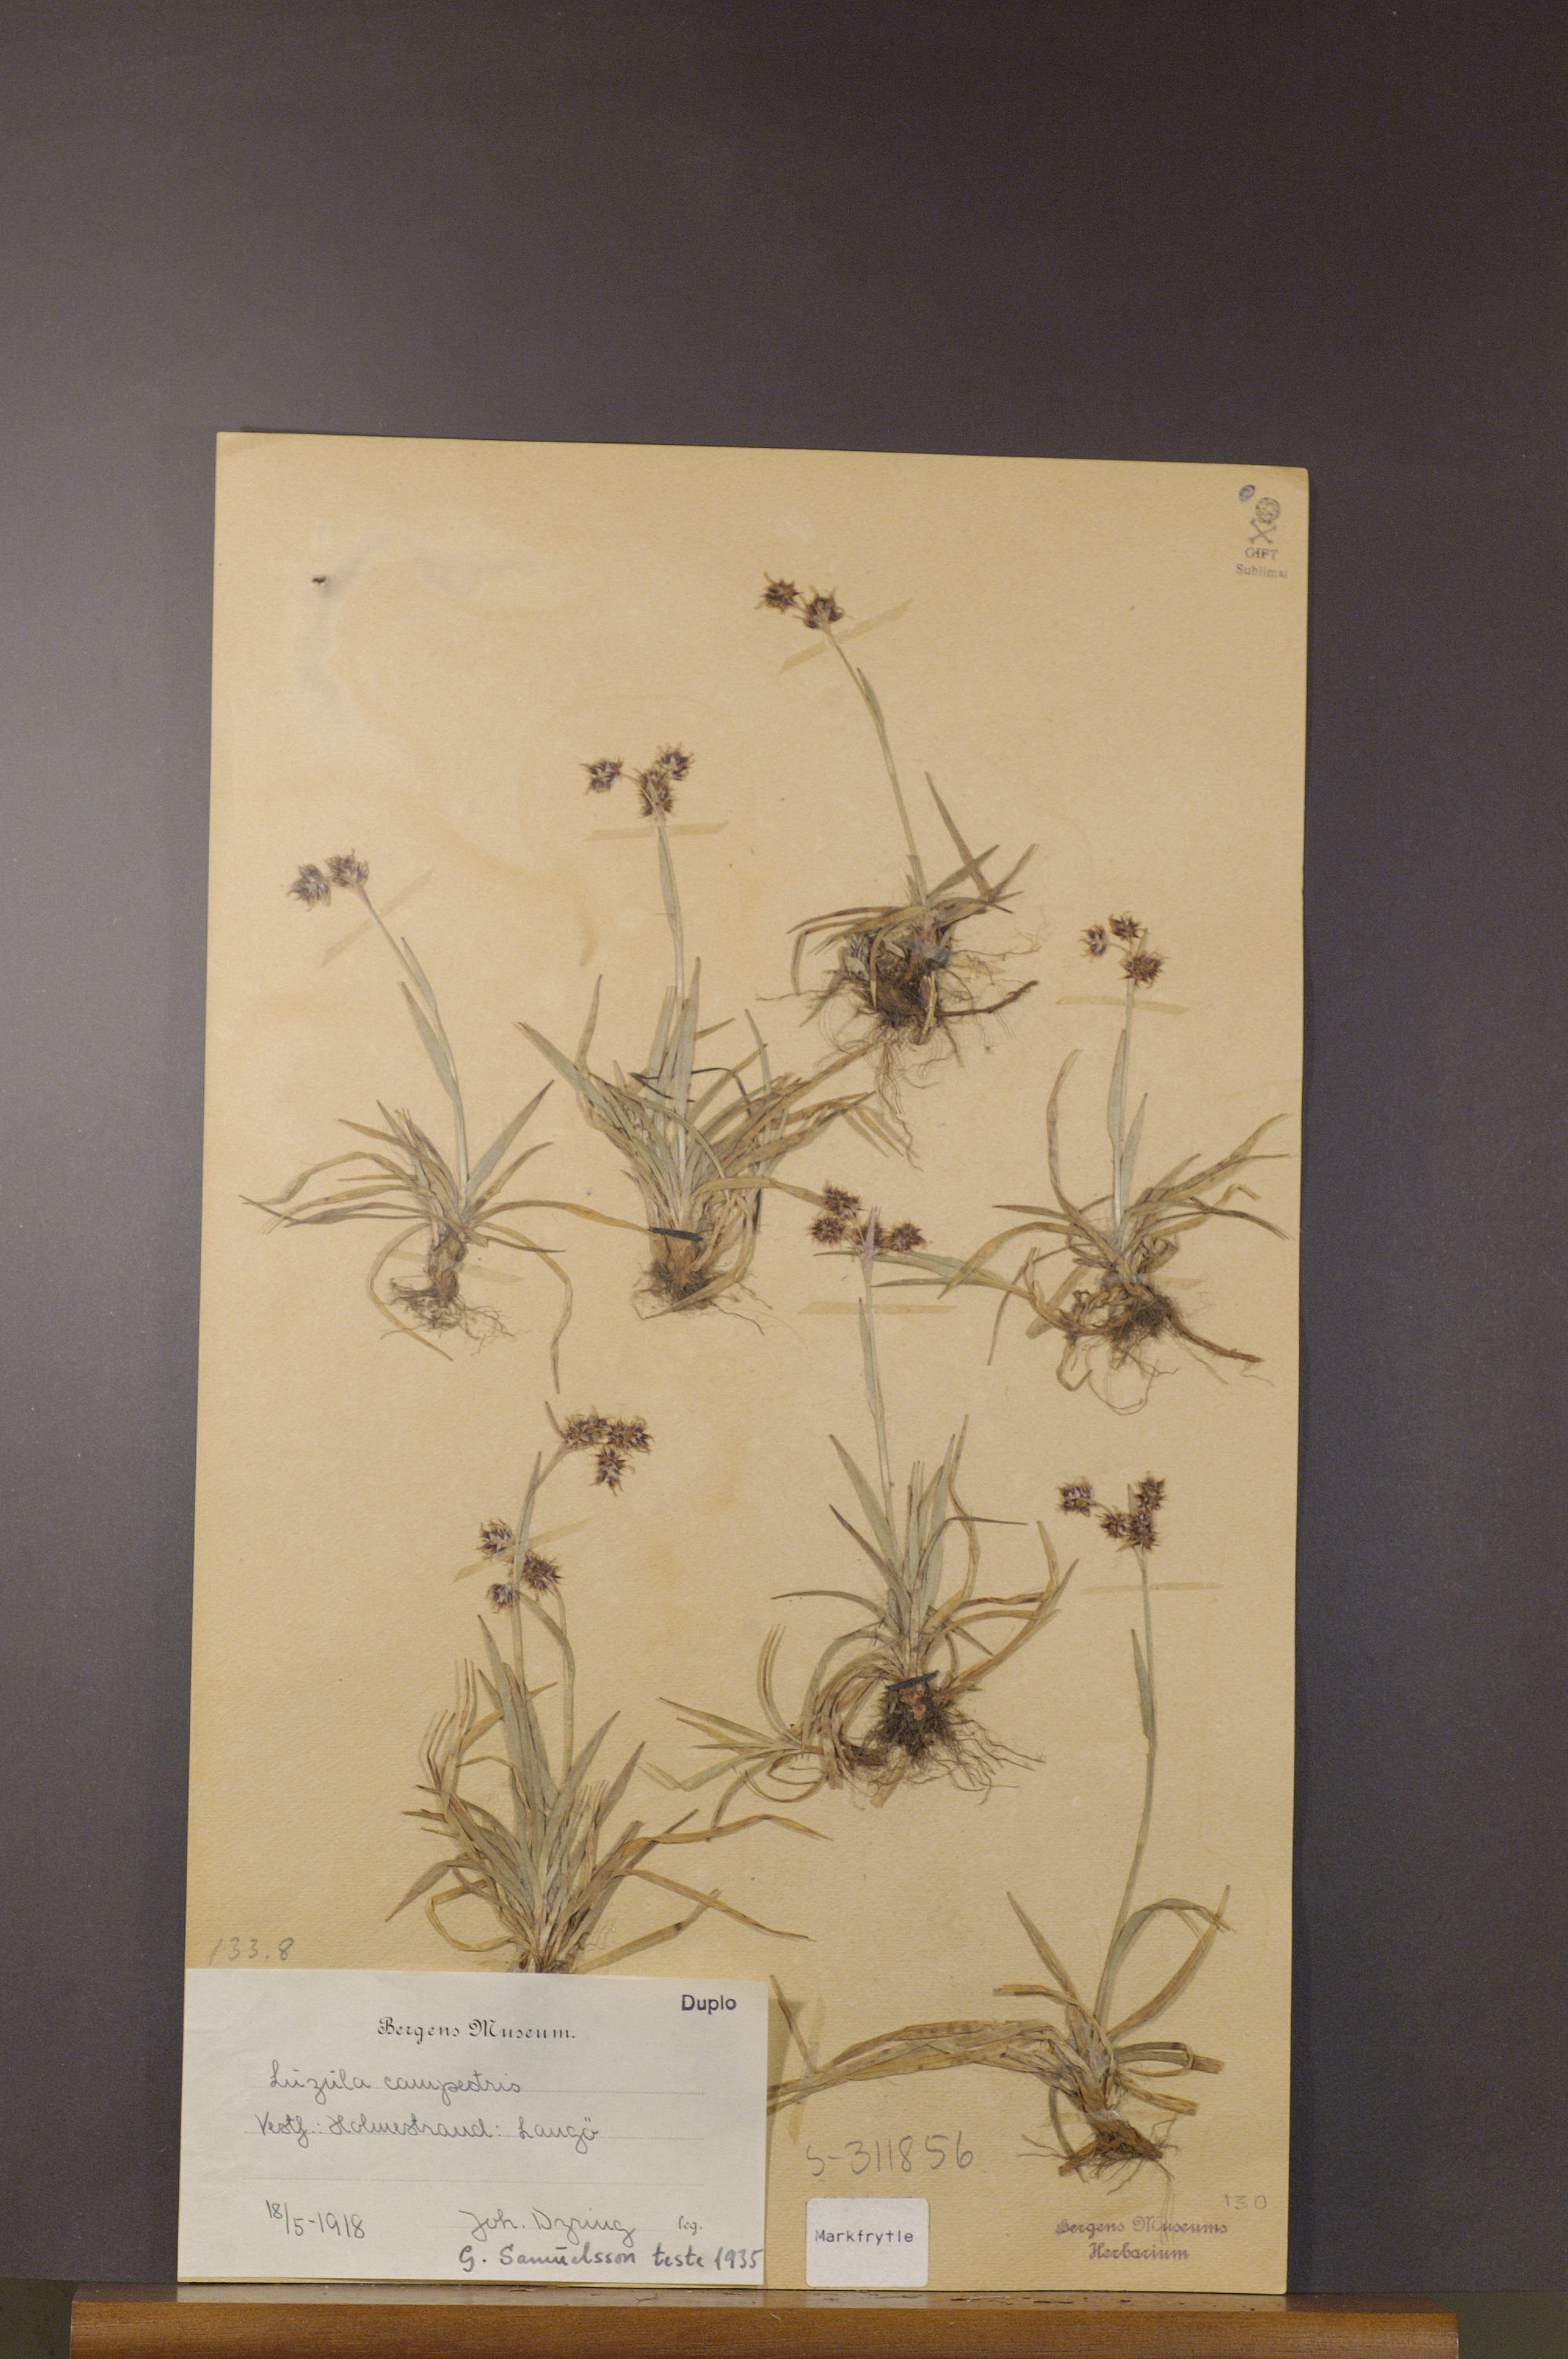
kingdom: Plantae
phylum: Tracheophyta
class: Liliopsida
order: Poales
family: Juncaceae
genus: Luzula
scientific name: Luzula campestris
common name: Field wood-rush
